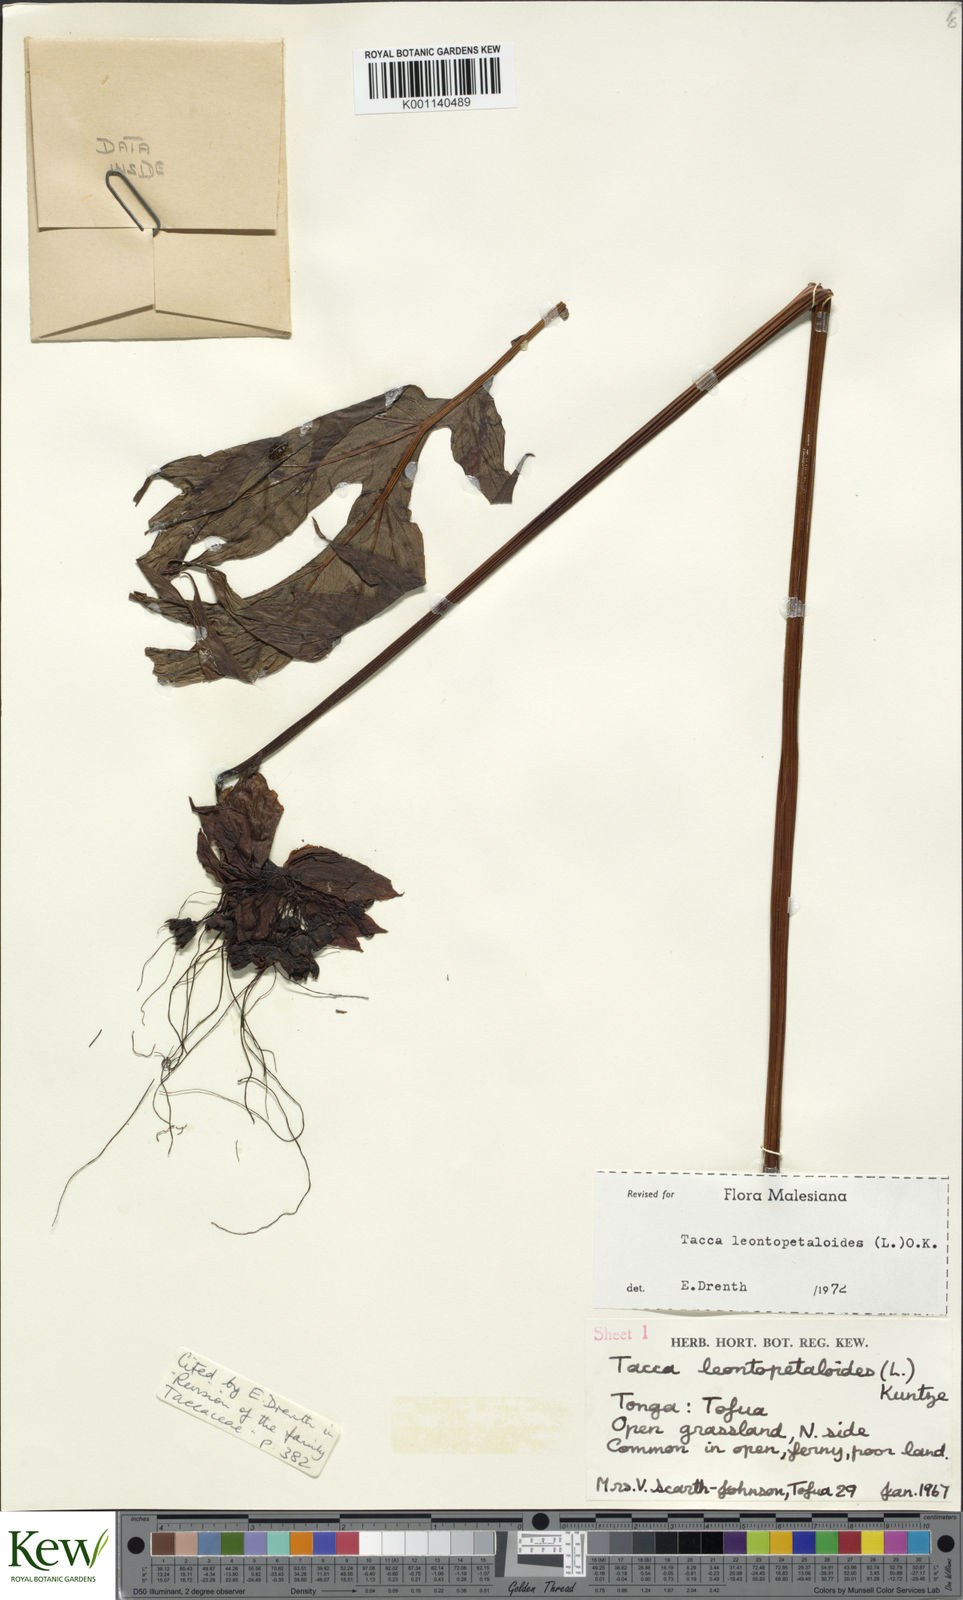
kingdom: Plantae
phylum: Tracheophyta
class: Liliopsida
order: Dioscoreales
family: Dioscoreaceae
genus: Tacca
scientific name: Tacca leontopetaloides
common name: Arrowroot
